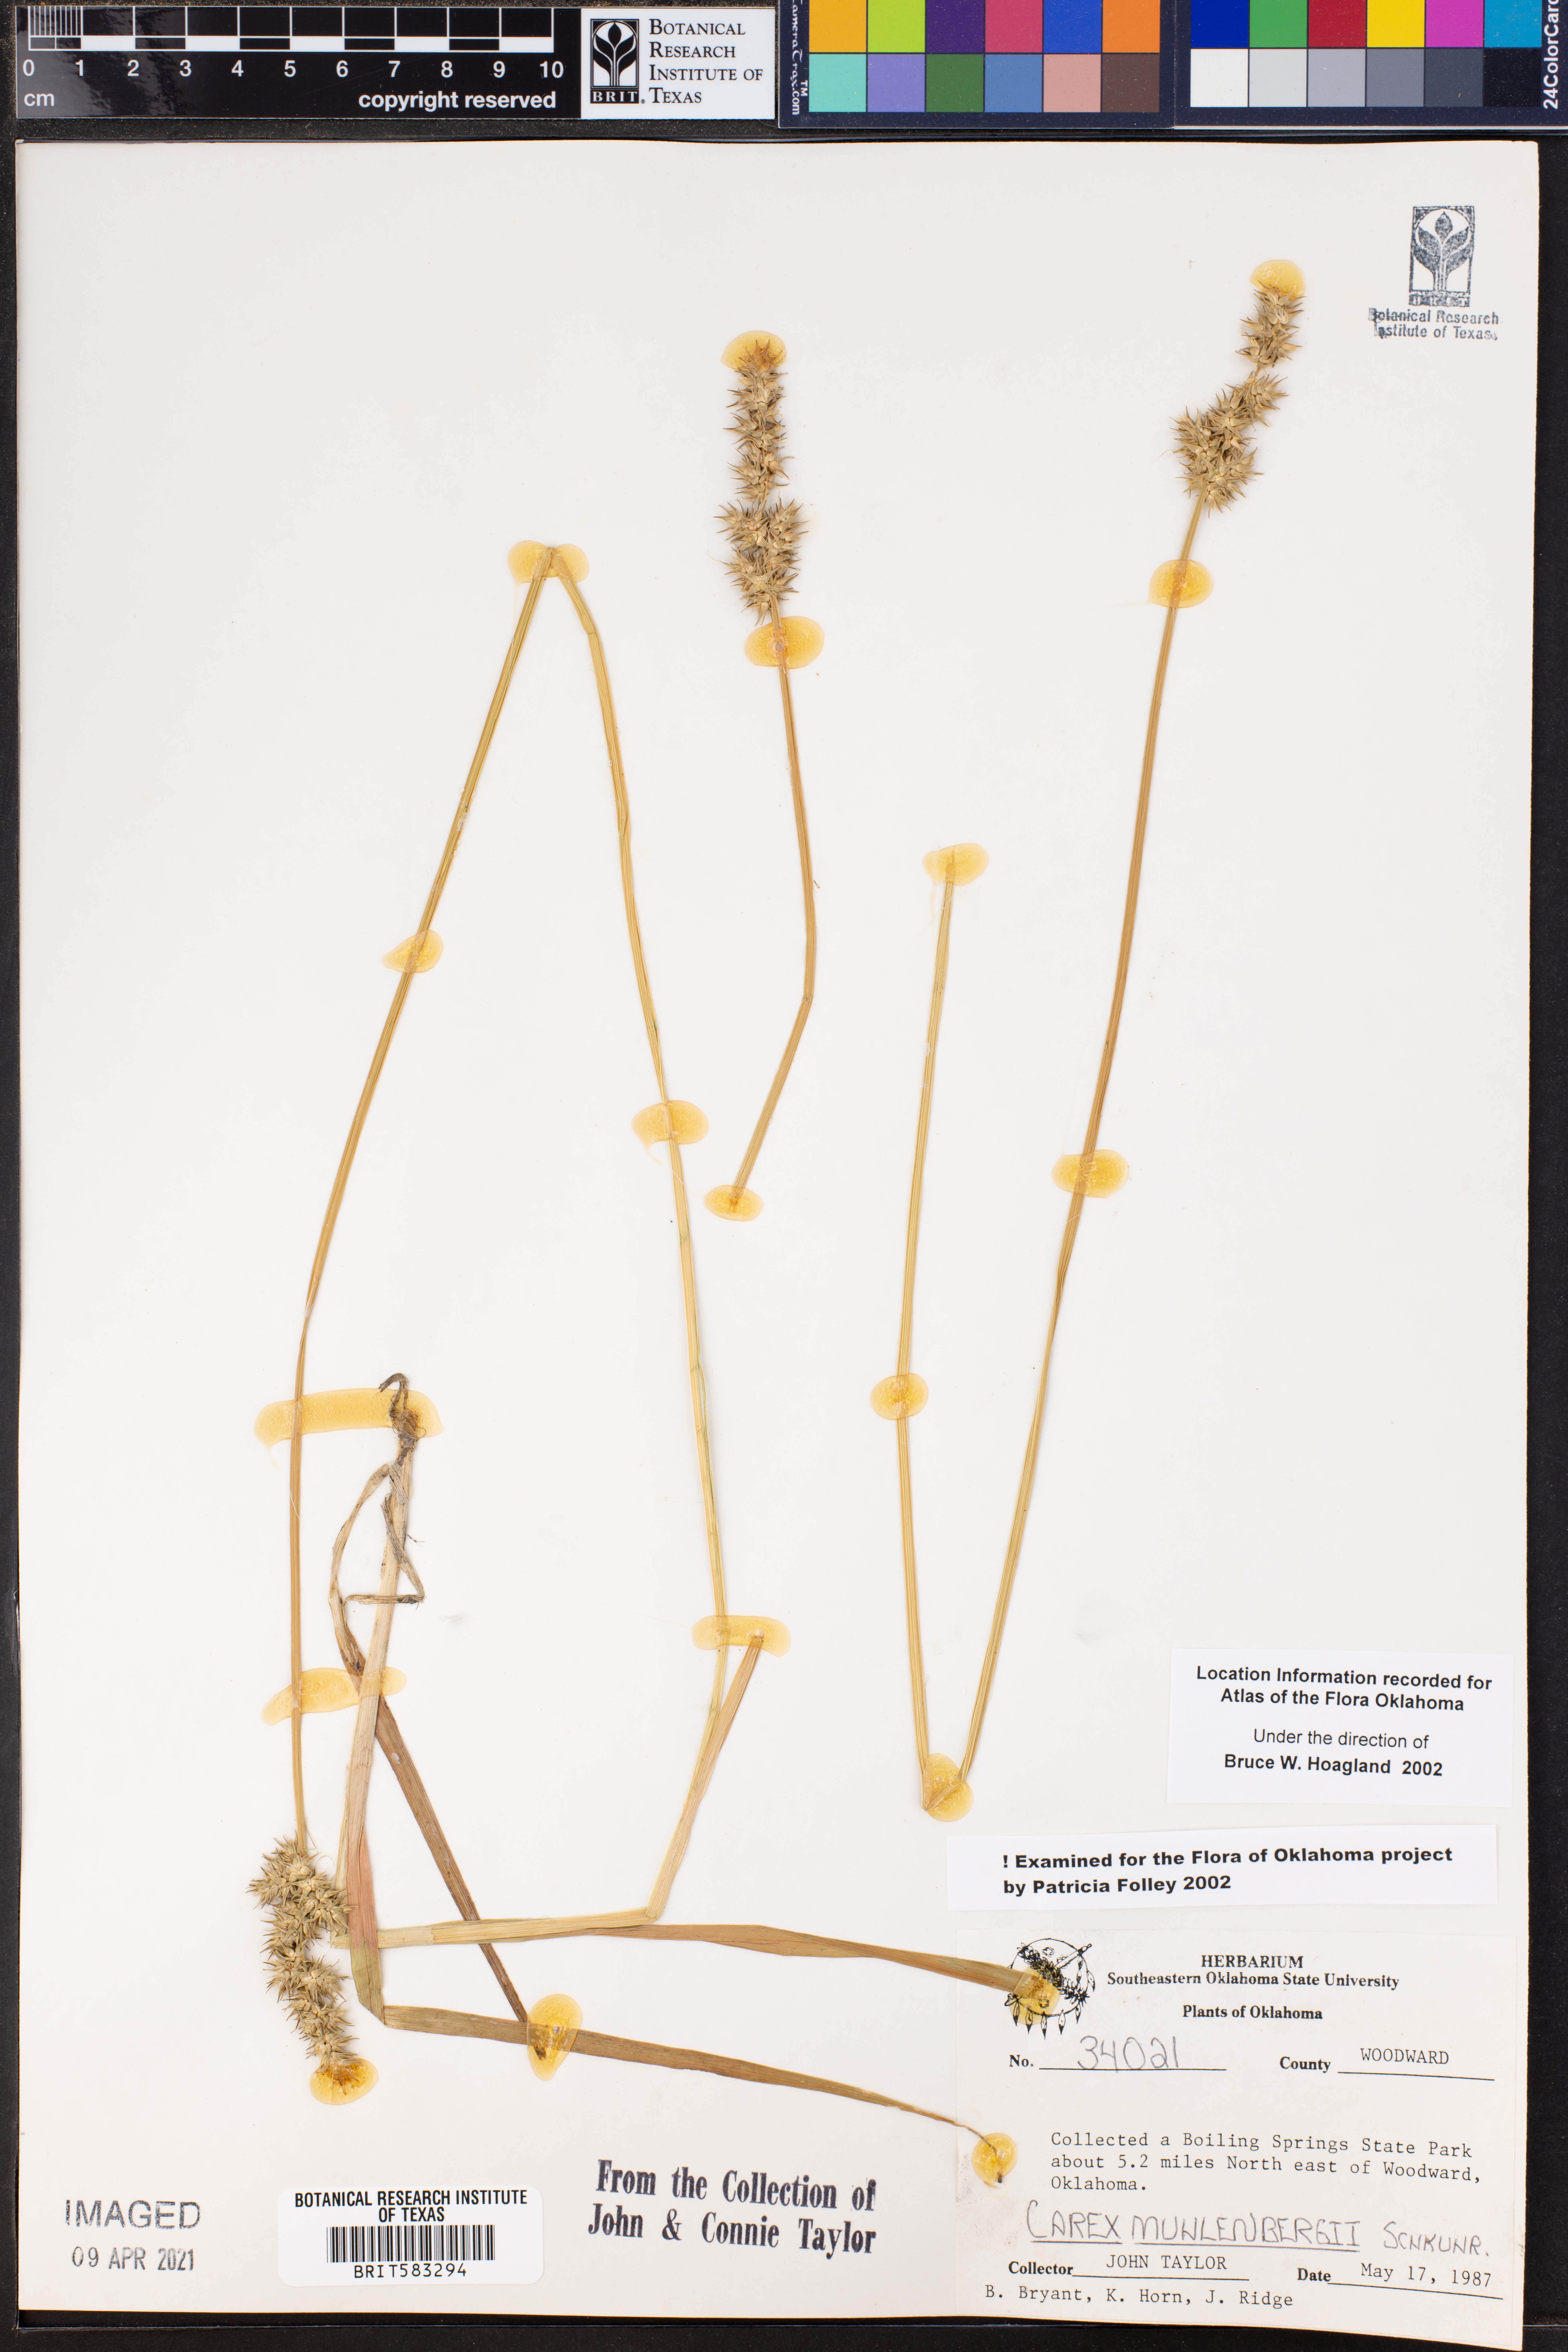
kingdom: Plantae
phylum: Tracheophyta
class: Liliopsida
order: Poales
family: Cyperaceae
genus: Carex
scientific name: Carex vulpinoidea
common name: American fox-sedge
